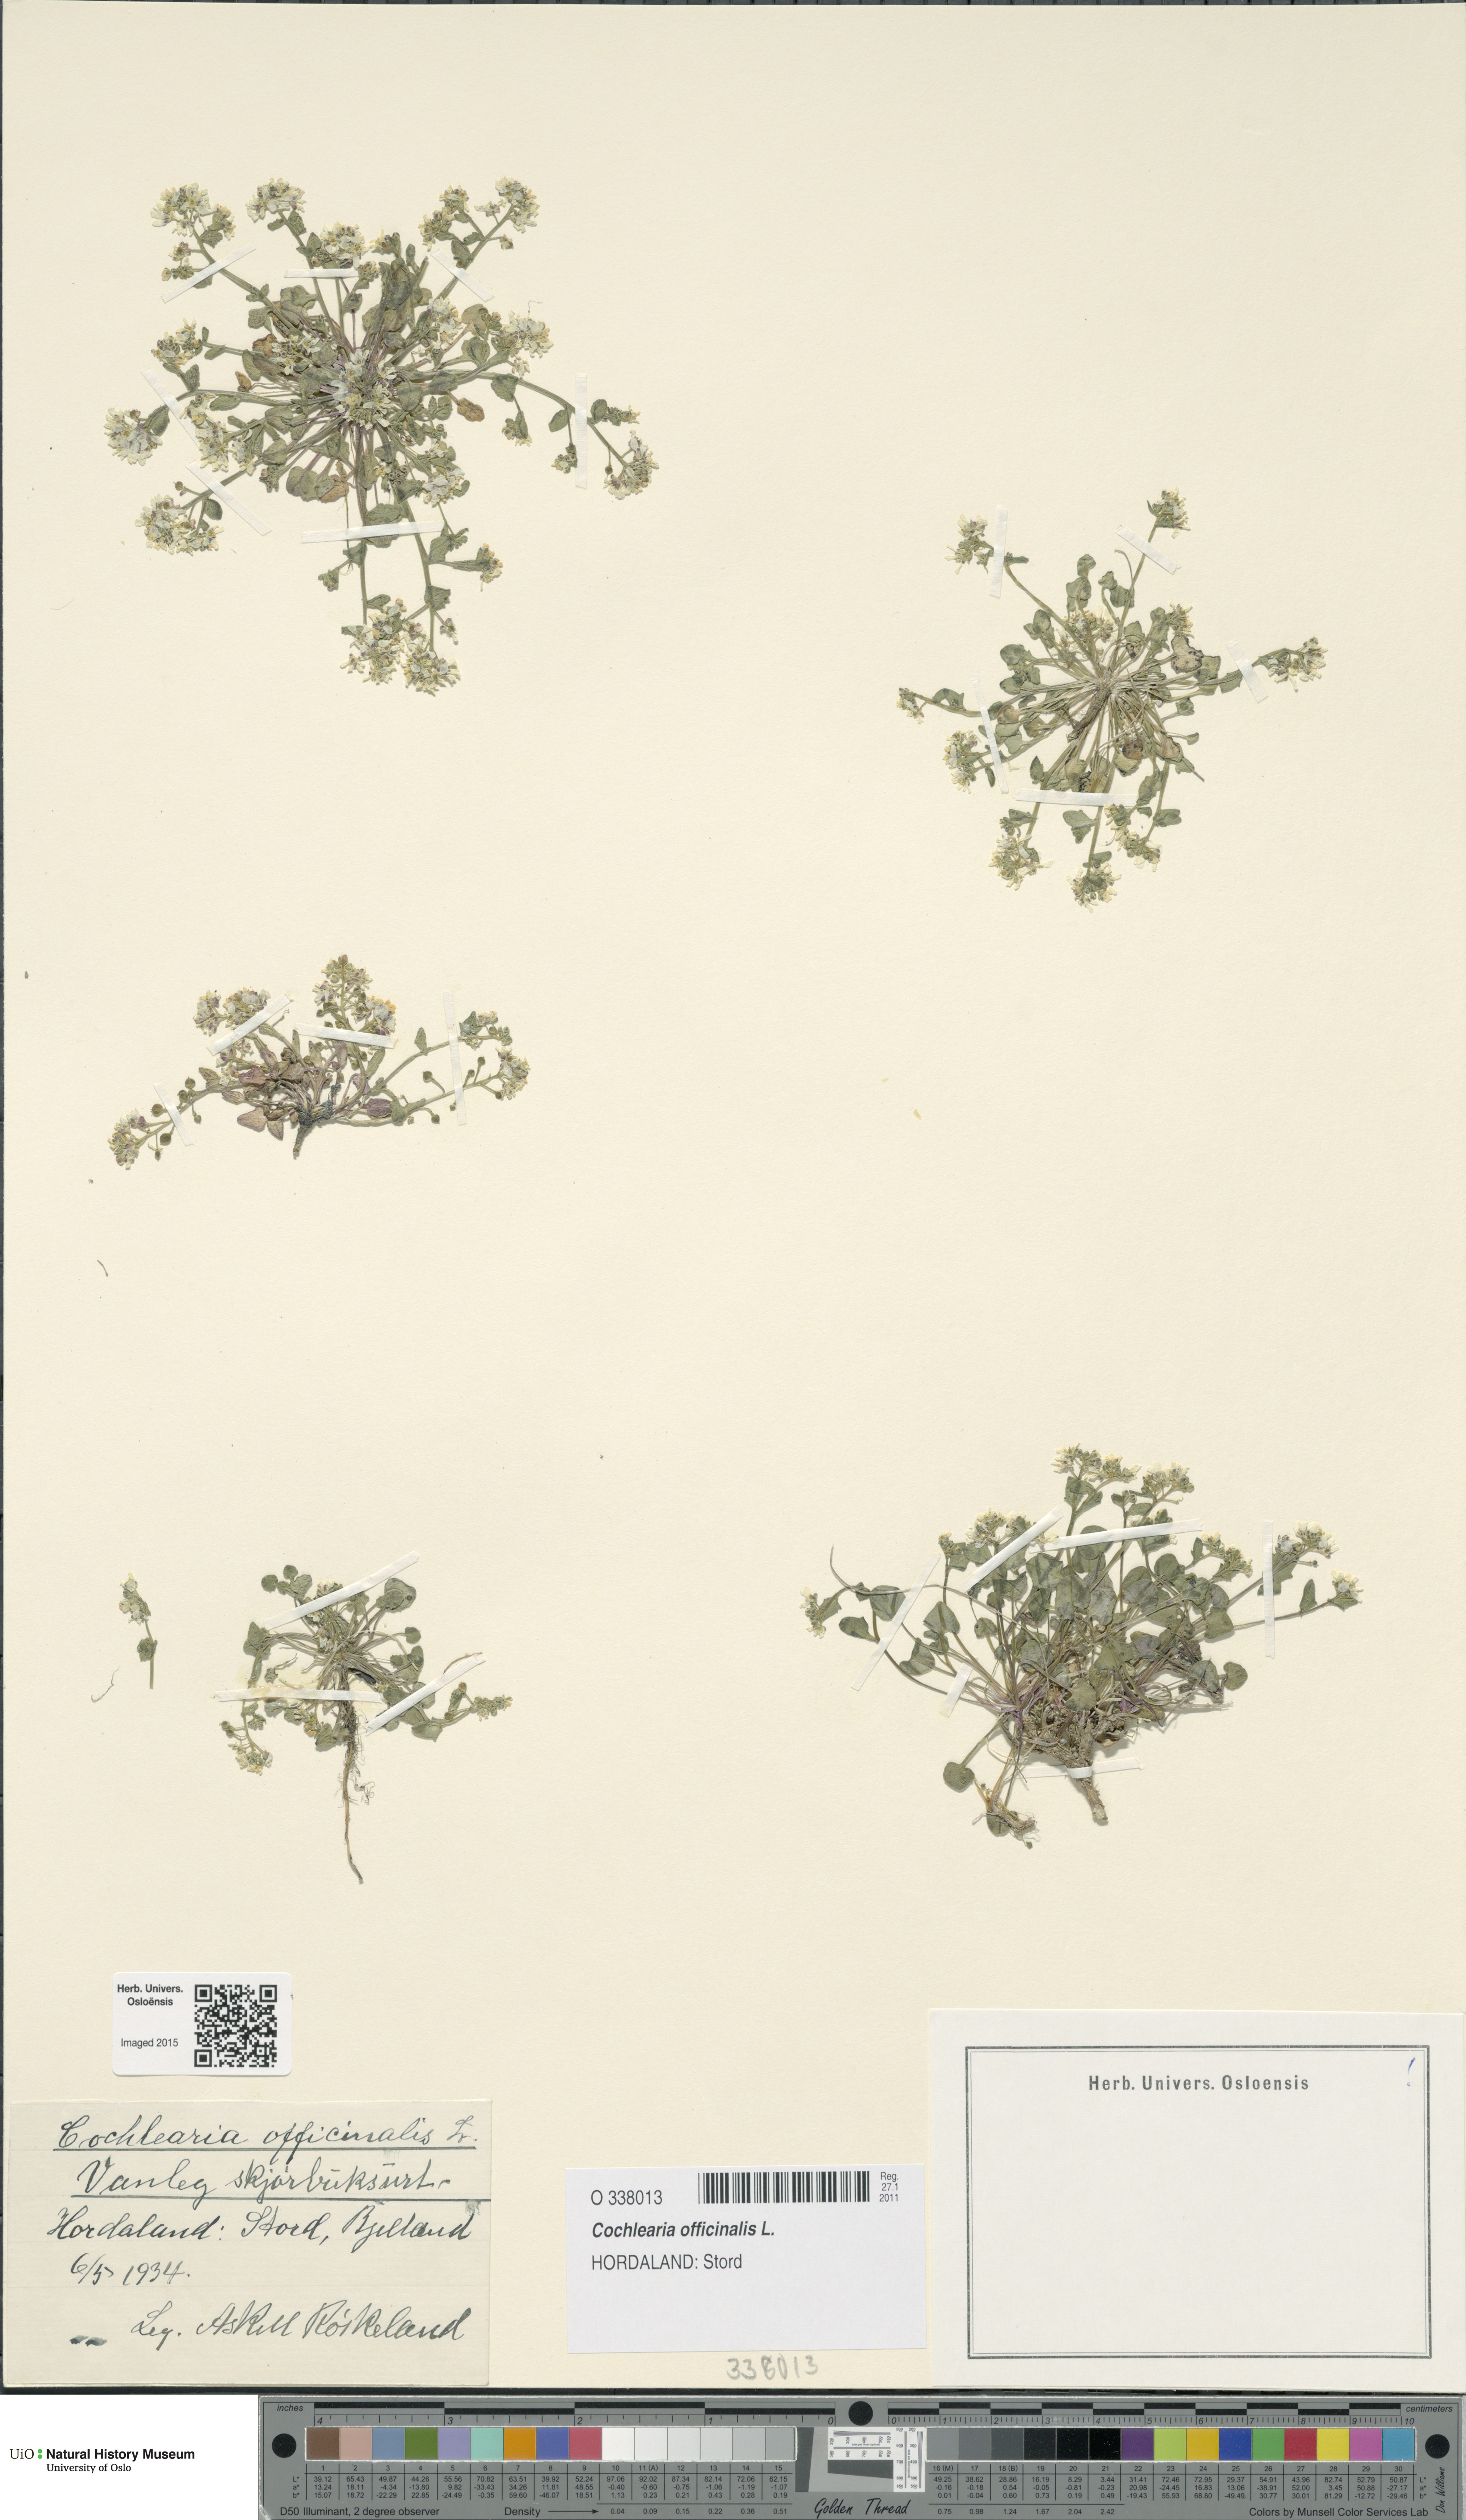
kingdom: Plantae
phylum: Tracheophyta
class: Magnoliopsida
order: Brassicales
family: Brassicaceae
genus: Cochlearia
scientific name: Cochlearia officinalis
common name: Scurvy-grass
